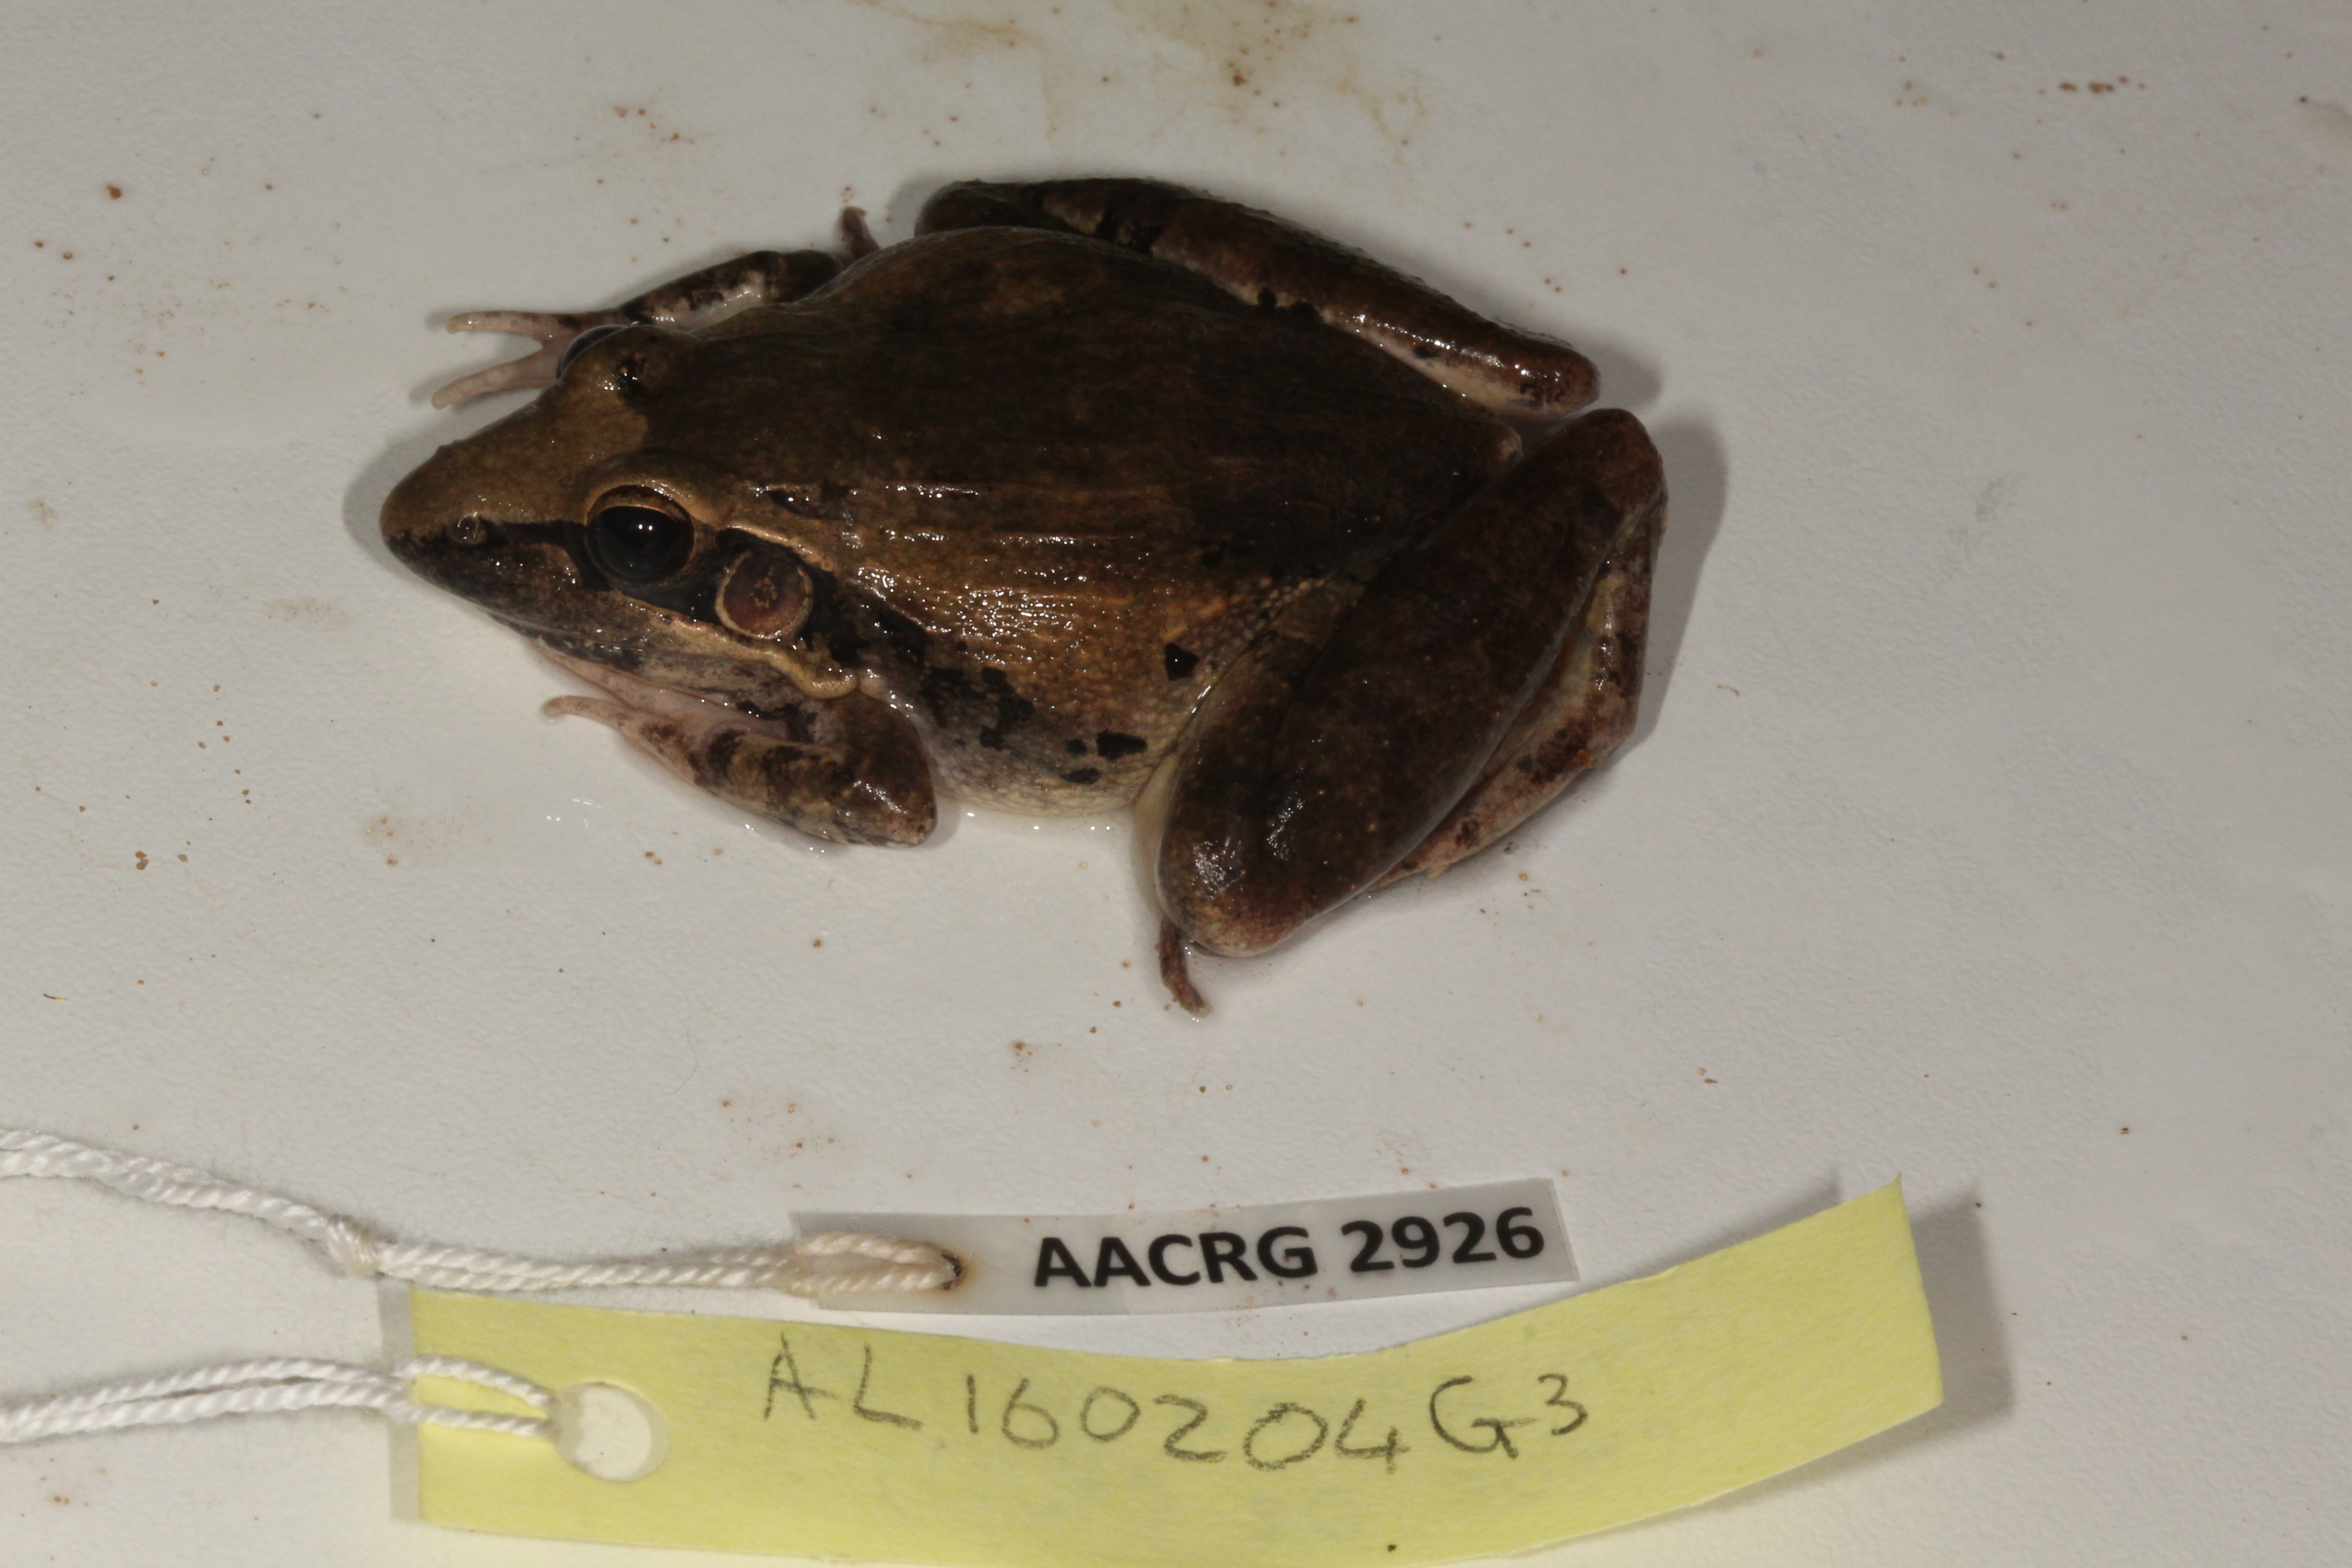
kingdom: Animalia
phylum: Chordata
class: Amphibia
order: Anura
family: Ptychadenidae
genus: Ptychadena
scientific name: Ptychadena anchietae
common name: Anchieta's ridged frog
